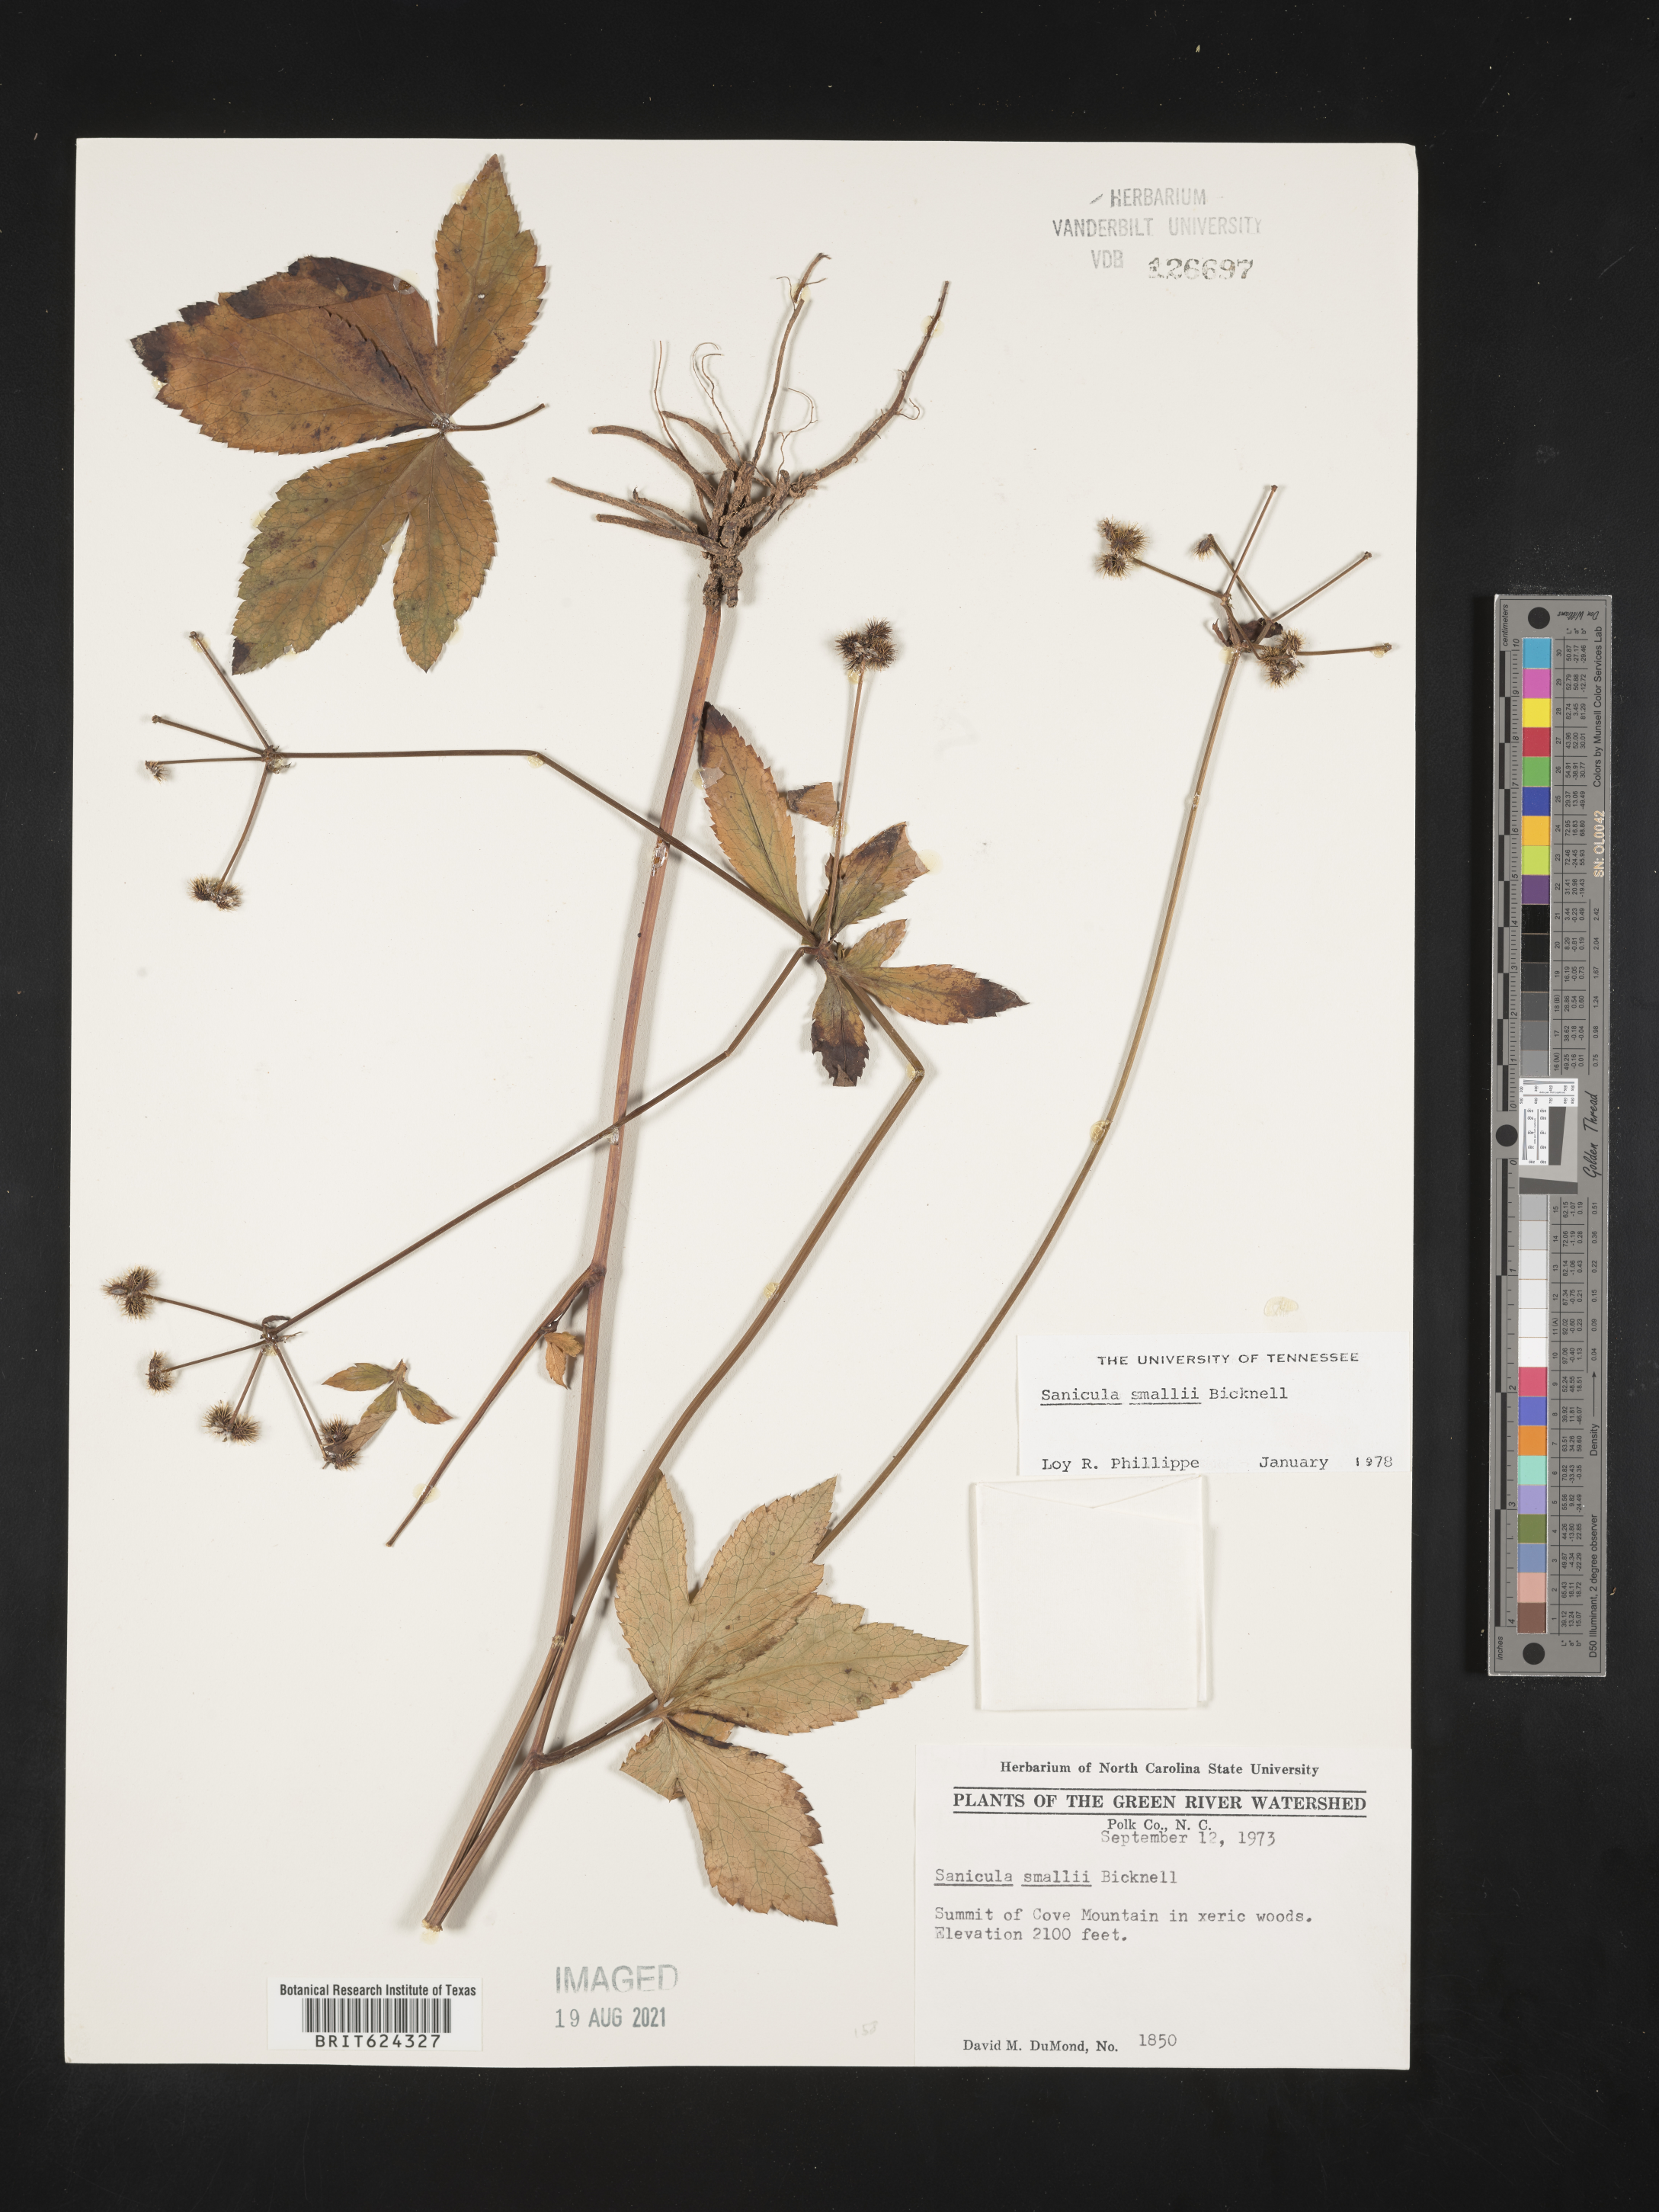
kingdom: Plantae
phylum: Tracheophyta
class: Magnoliopsida
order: Apiales
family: Apiaceae
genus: Sanicula
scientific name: Sanicula smallii
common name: Small's black snakeroot
